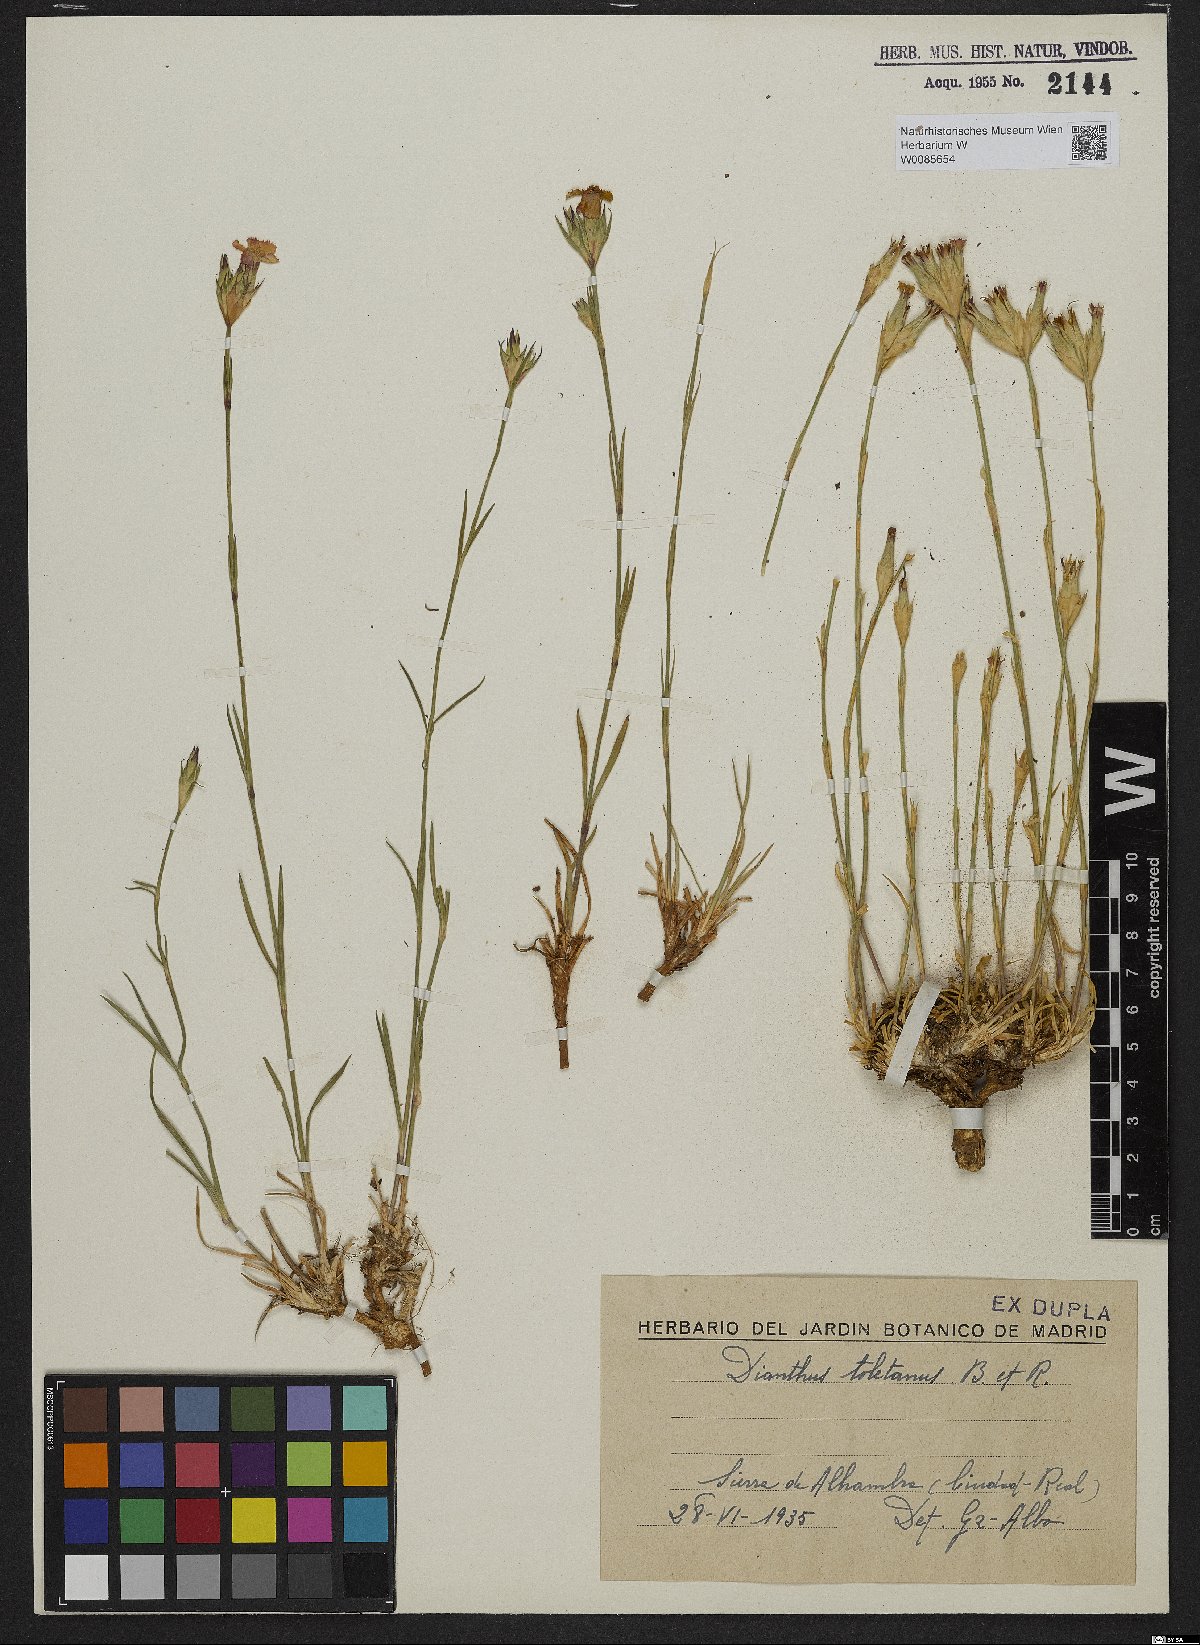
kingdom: Plantae
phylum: Tracheophyta
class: Magnoliopsida
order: Caryophyllales
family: Caryophyllaceae
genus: Dianthus
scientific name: Dianthus toletanus
